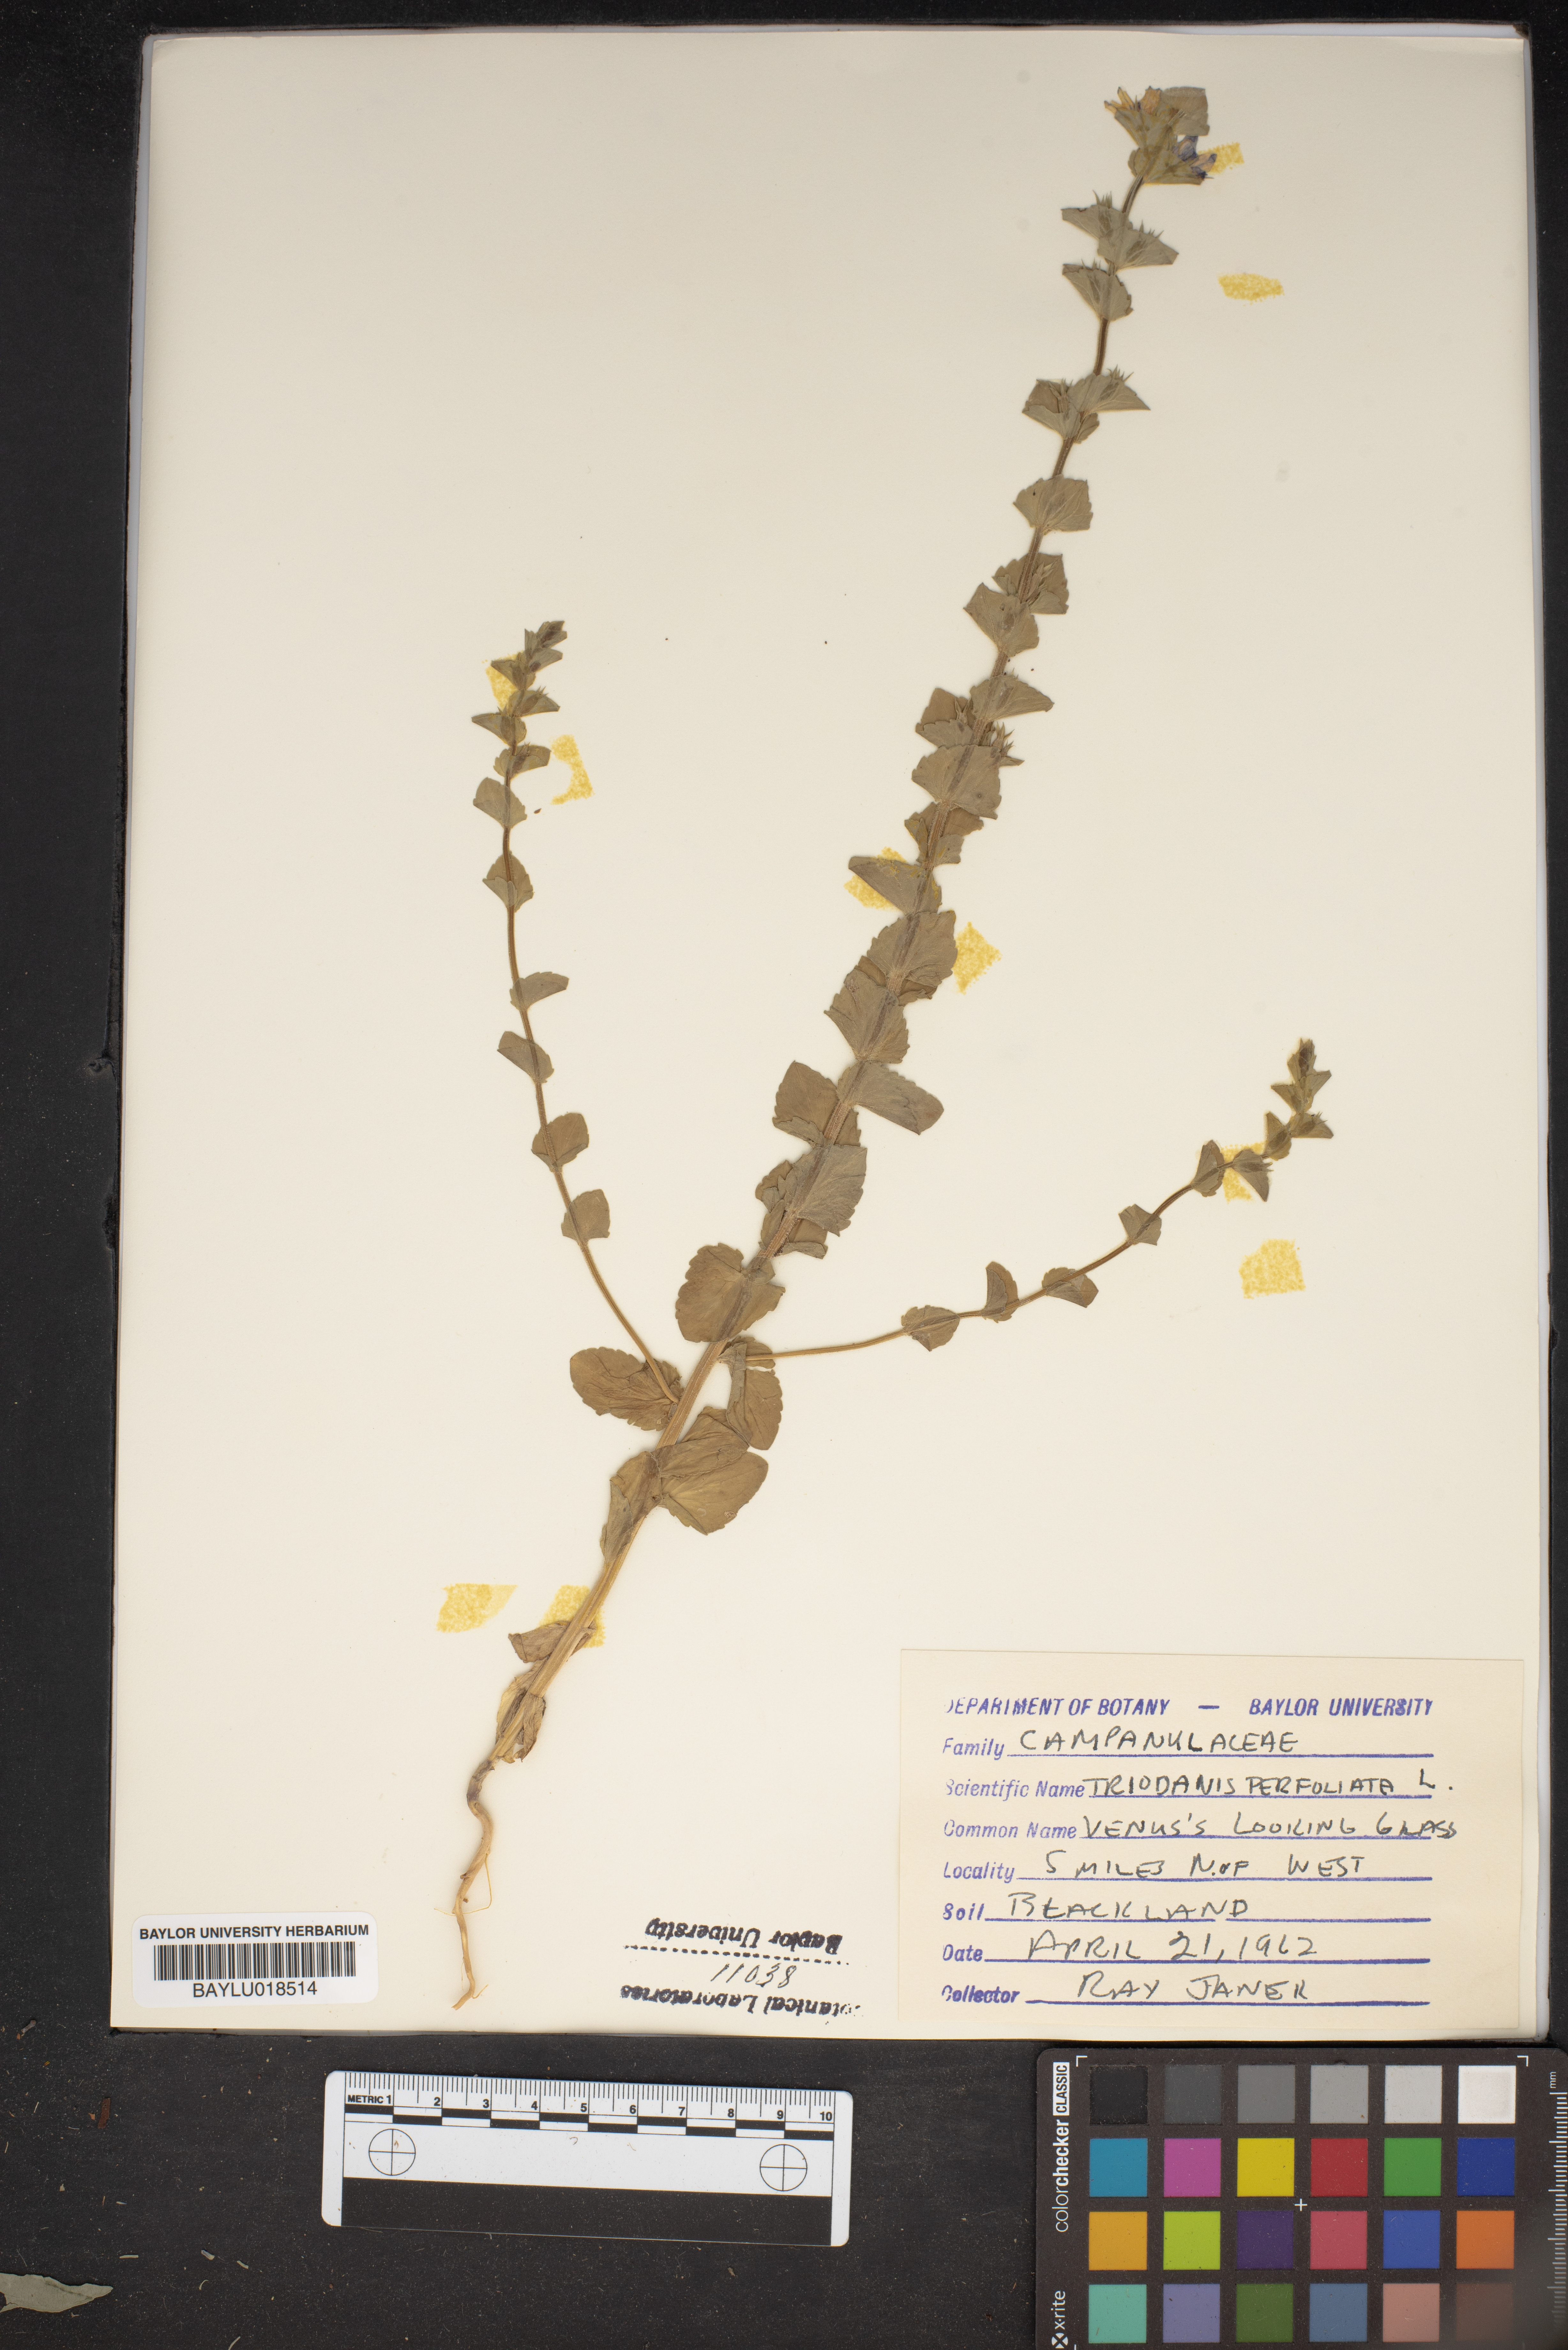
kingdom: Plantae
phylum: Tracheophyta
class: Magnoliopsida
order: Asterales
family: Campanulaceae
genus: Triodanis
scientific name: Triodanis perfoliata
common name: Clasping venus' looking-glass
